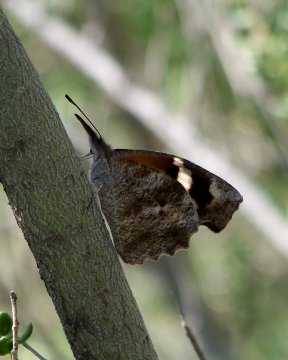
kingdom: Animalia
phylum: Arthropoda
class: Insecta
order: Lepidoptera
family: Nymphalidae
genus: Libytheana
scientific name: Libytheana carinenta
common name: American Snout
